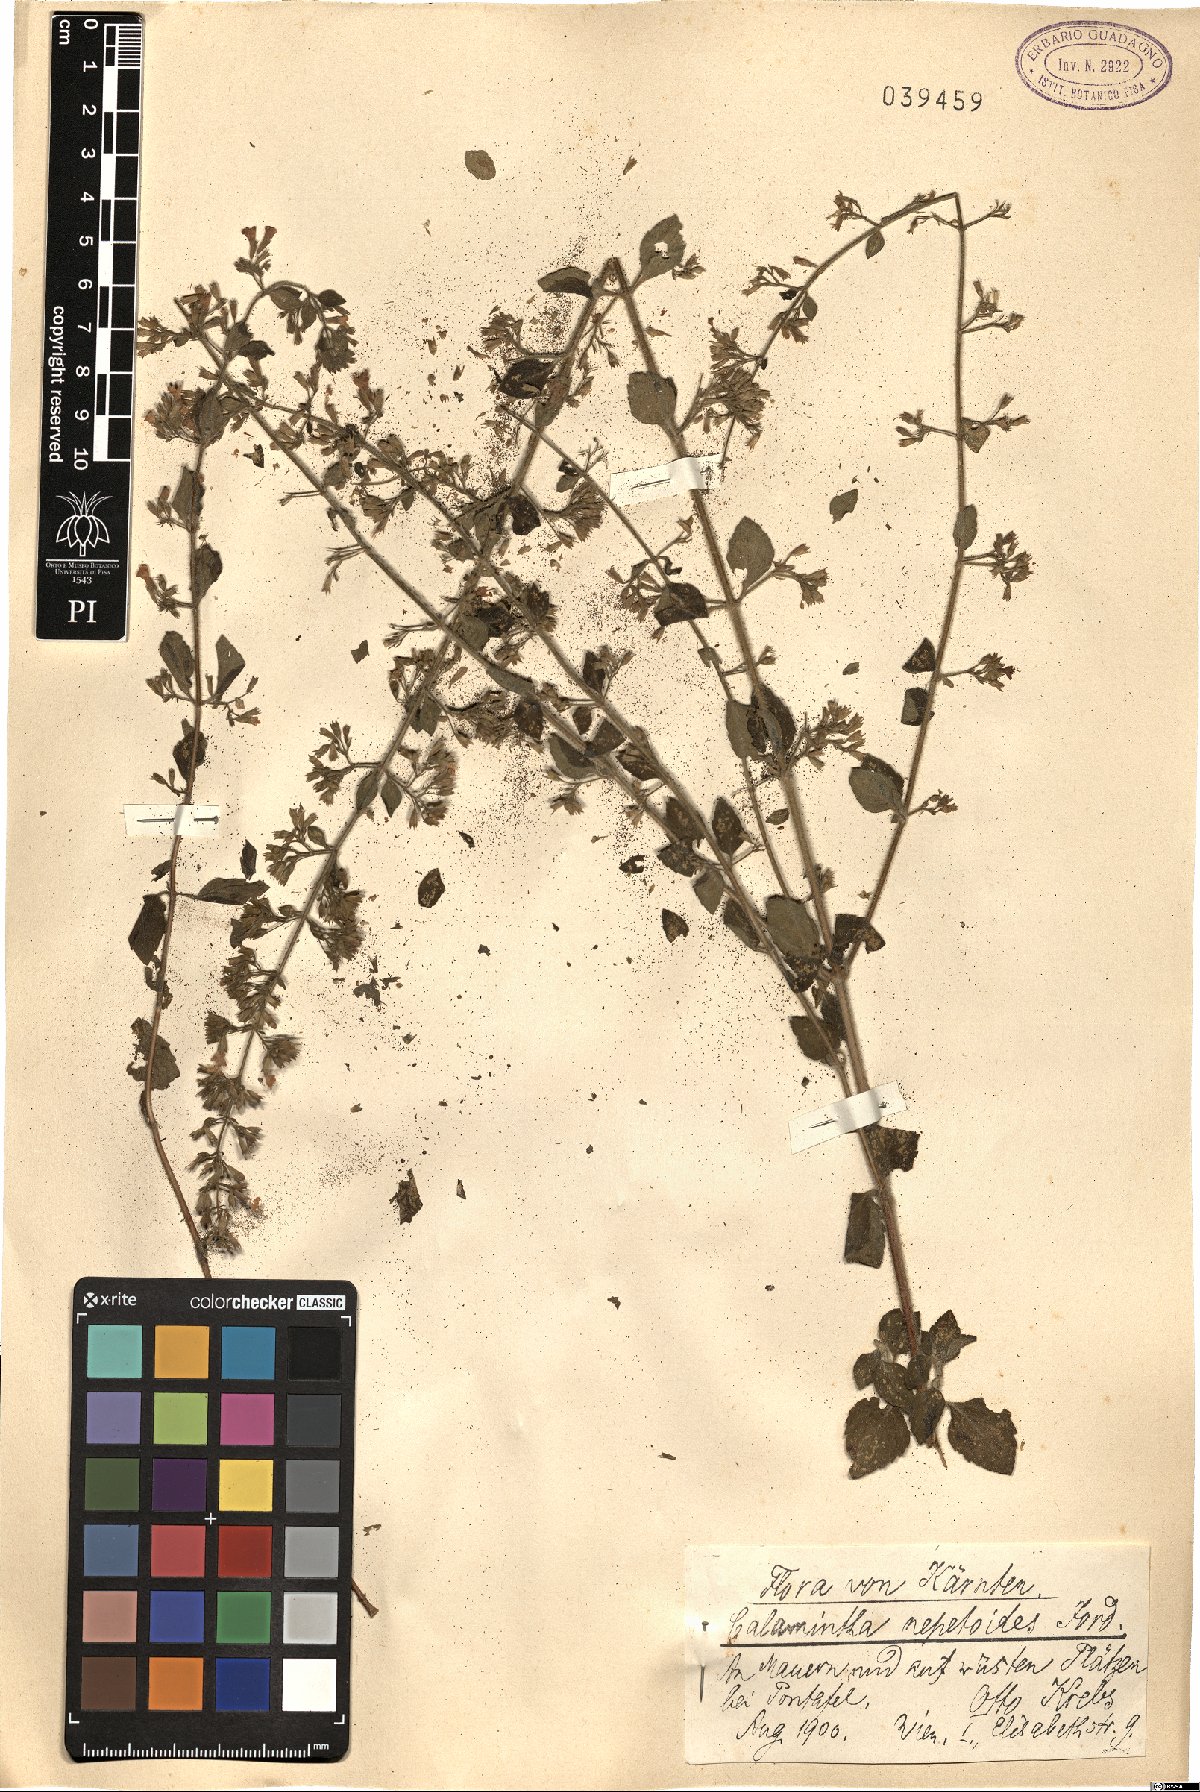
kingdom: Plantae
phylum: Tracheophyta
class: Magnoliopsida
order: Lamiales
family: Lamiaceae
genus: Clinopodium
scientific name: Clinopodium nepeta
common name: Lesser calamint
